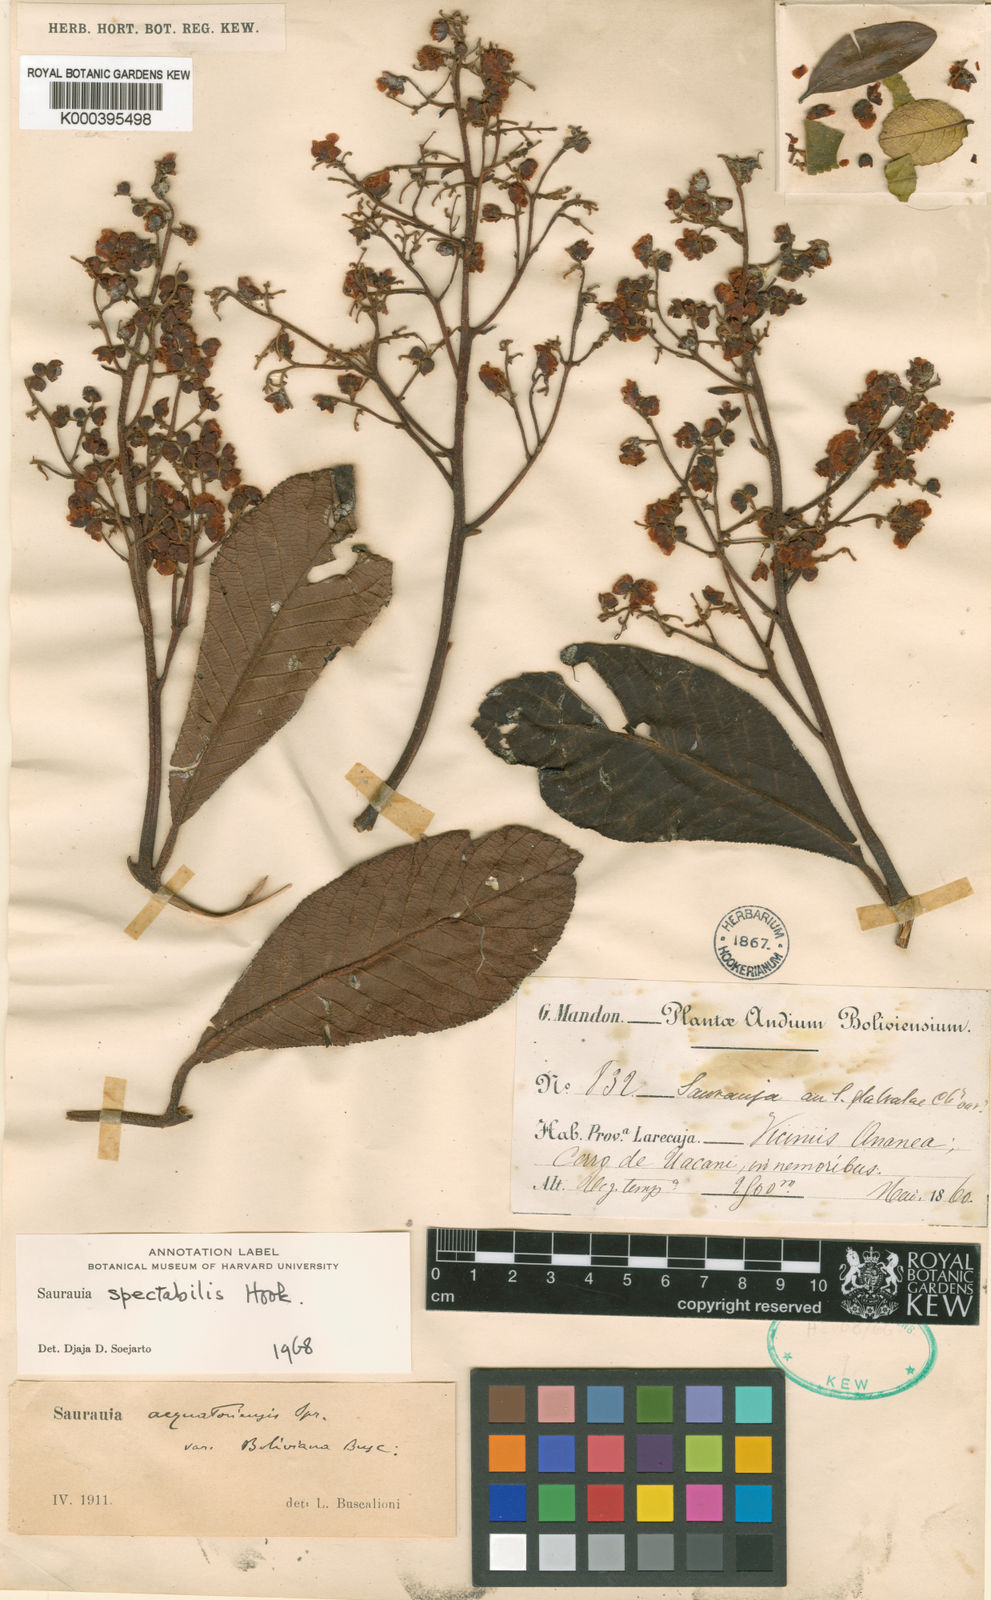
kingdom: Plantae
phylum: Tracheophyta
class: Magnoliopsida
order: Ericales
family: Actinidiaceae
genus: Saurauia
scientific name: Saurauia spectabilis
